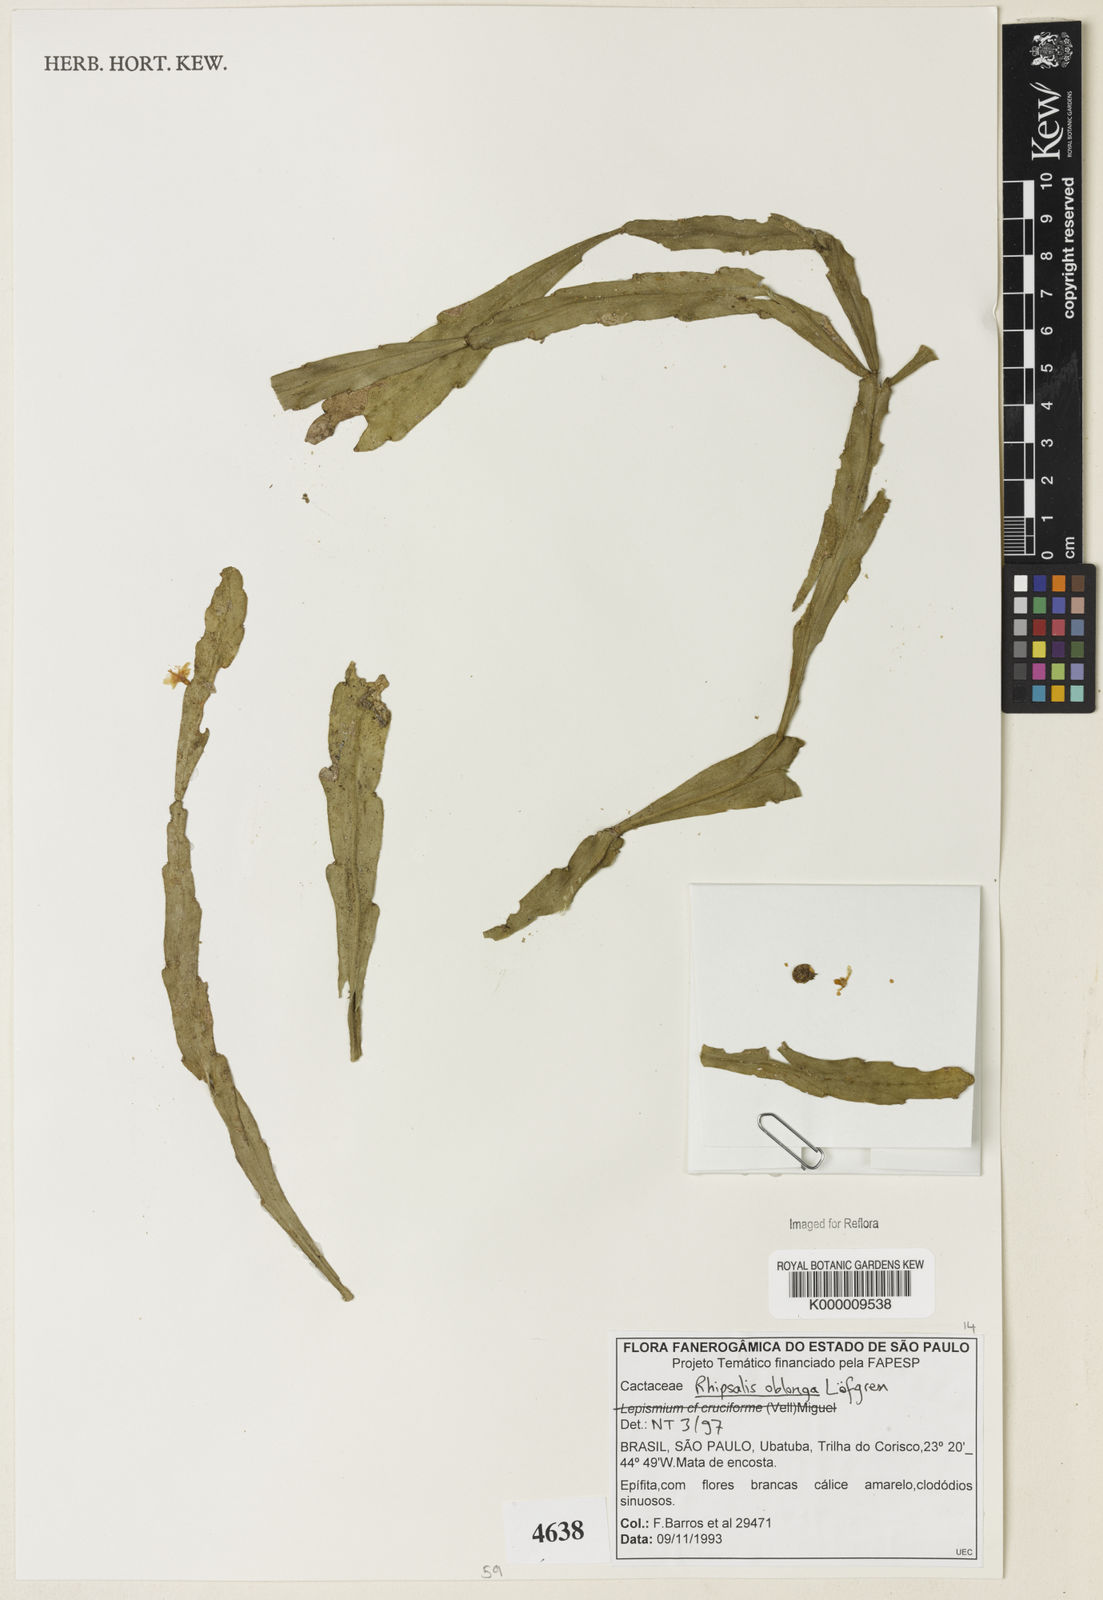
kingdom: Plantae
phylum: Tracheophyta
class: Magnoliopsida
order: Caryophyllales
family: Cactaceae
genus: Rhipsalis
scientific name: Rhipsalis
